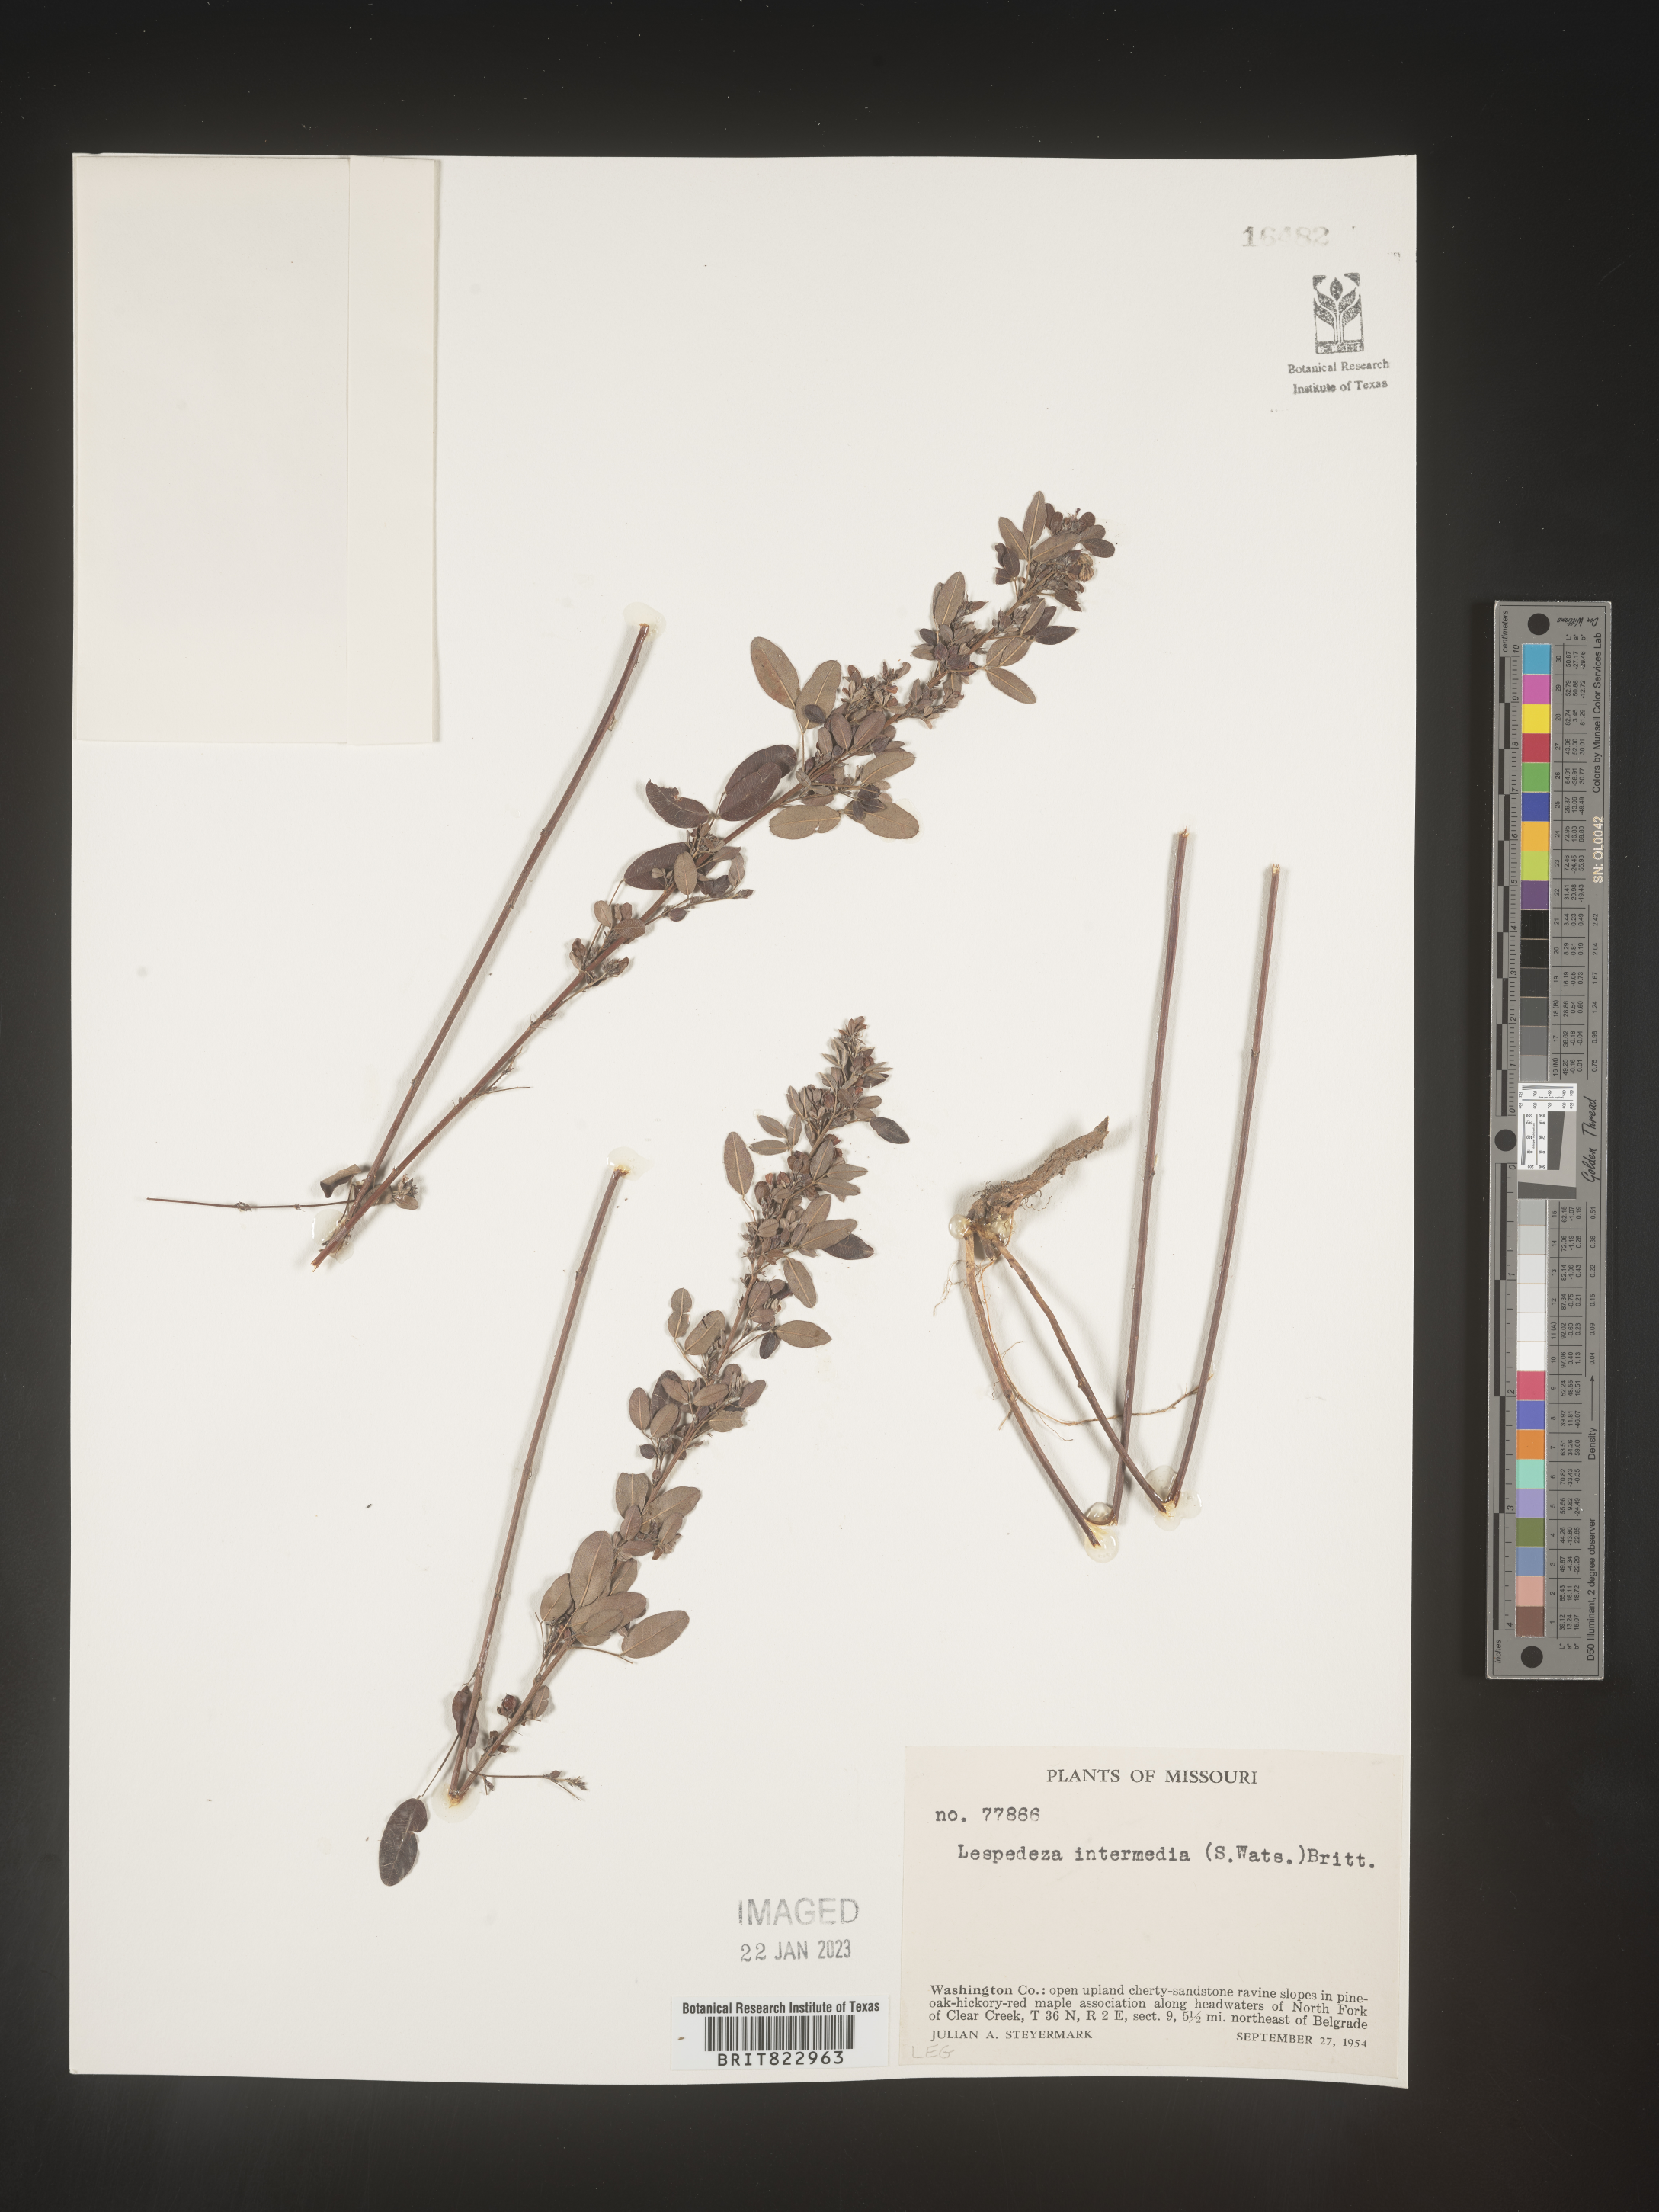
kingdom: Plantae
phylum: Tracheophyta
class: Magnoliopsida
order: Fabales
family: Fabaceae
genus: Lespedeza
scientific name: Lespedeza
